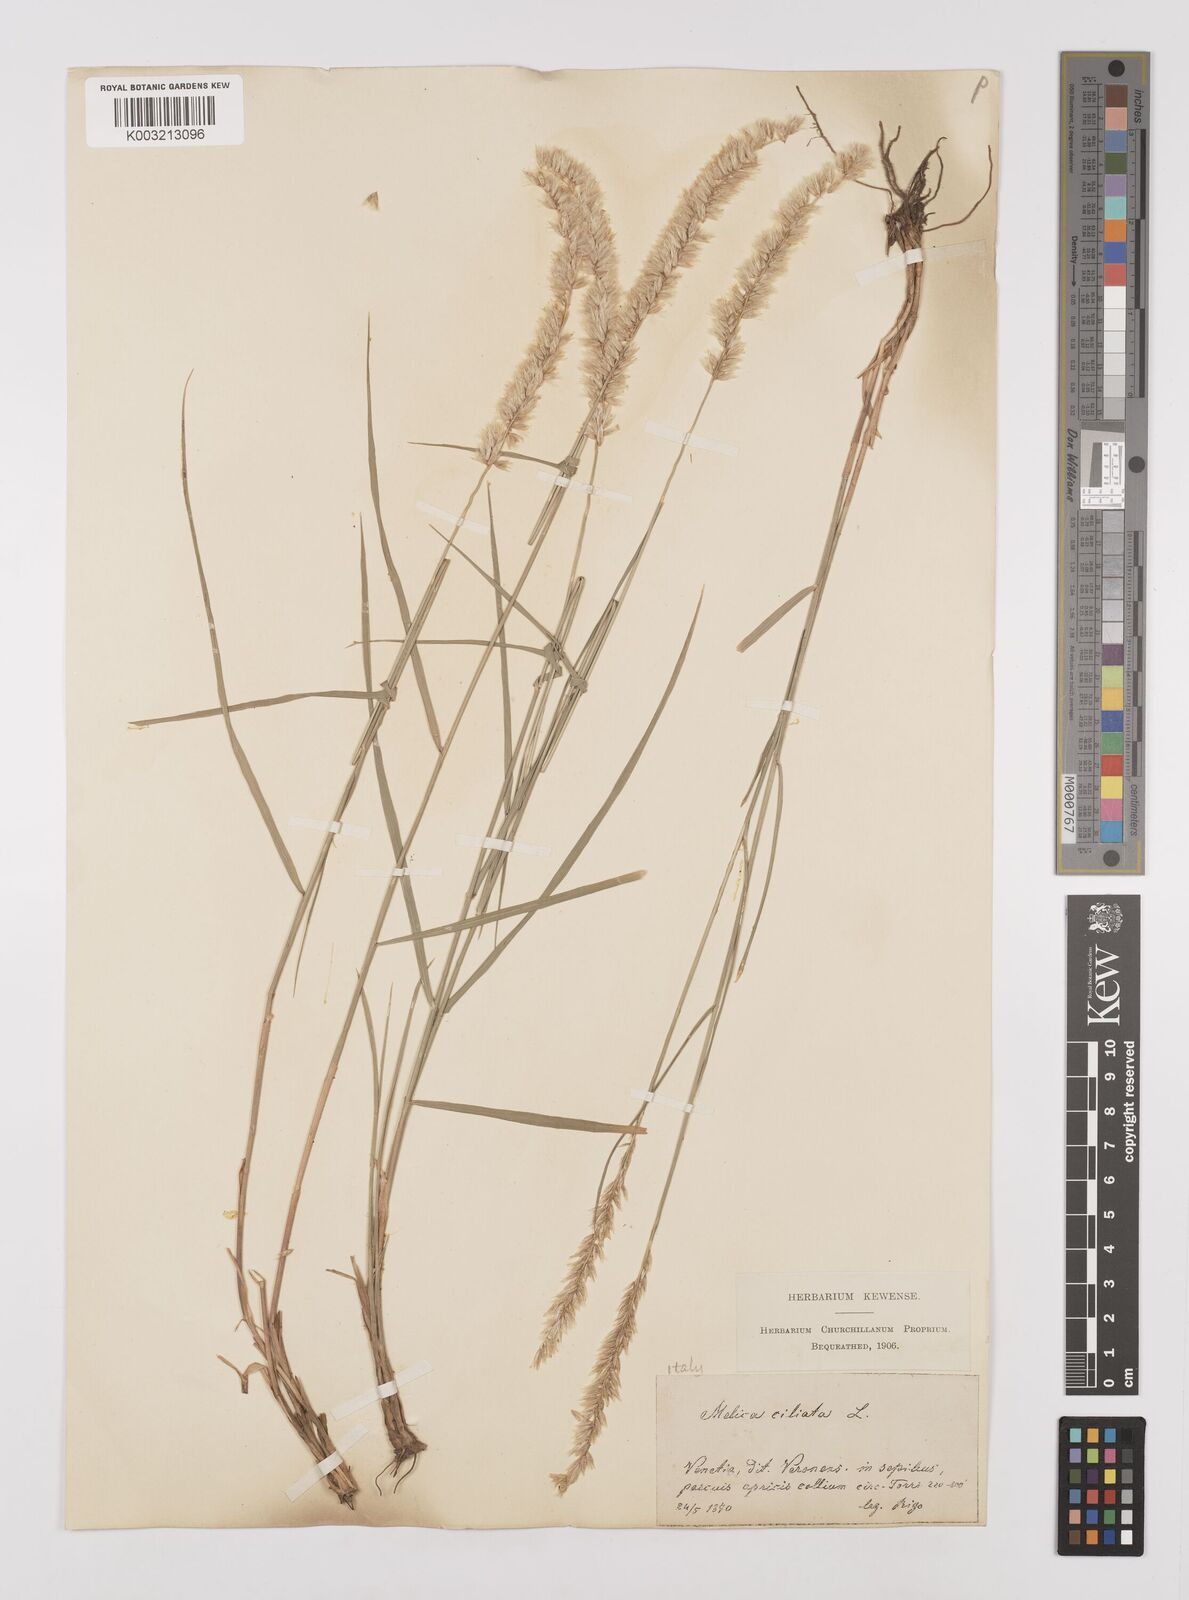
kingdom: Plantae
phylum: Tracheophyta
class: Liliopsida
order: Poales
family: Poaceae
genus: Melica
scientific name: Melica ciliata
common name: Hairy melicgrass
